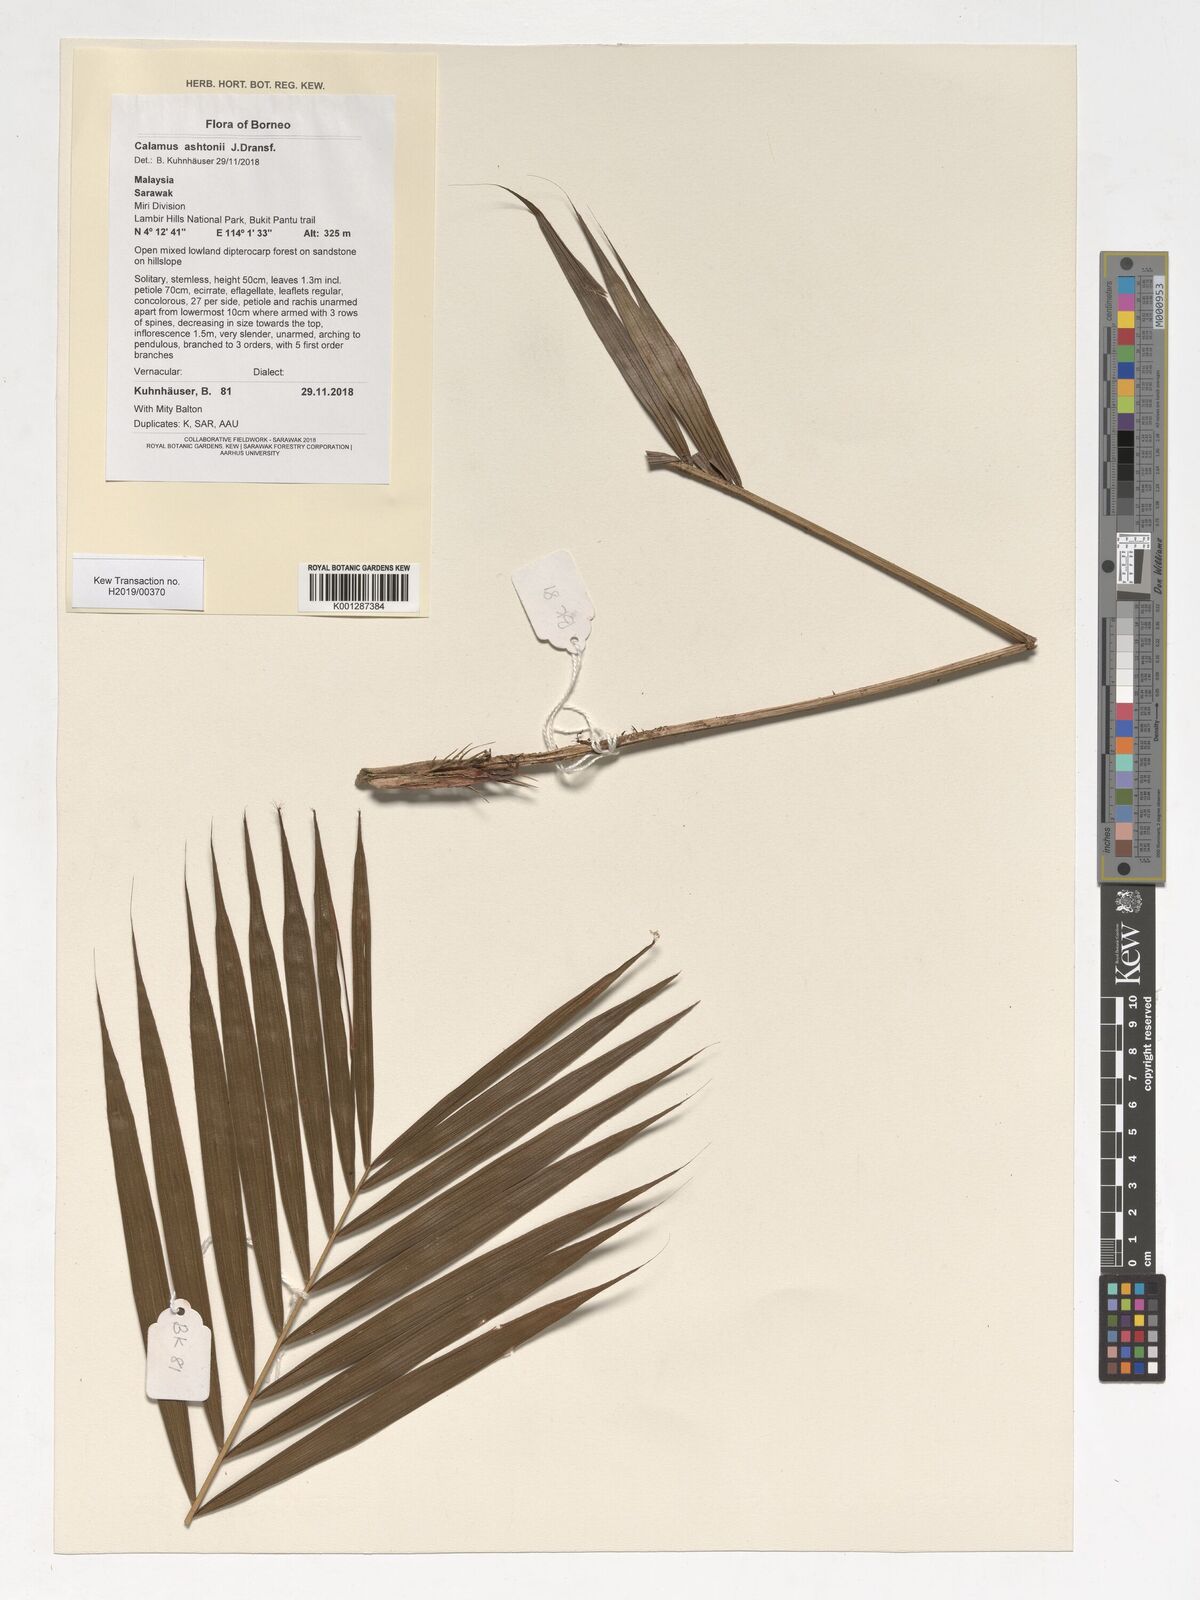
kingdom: Plantae
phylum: Tracheophyta
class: Liliopsida
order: Arecales
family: Arecaceae
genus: Calamus
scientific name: Calamus ashtonii
